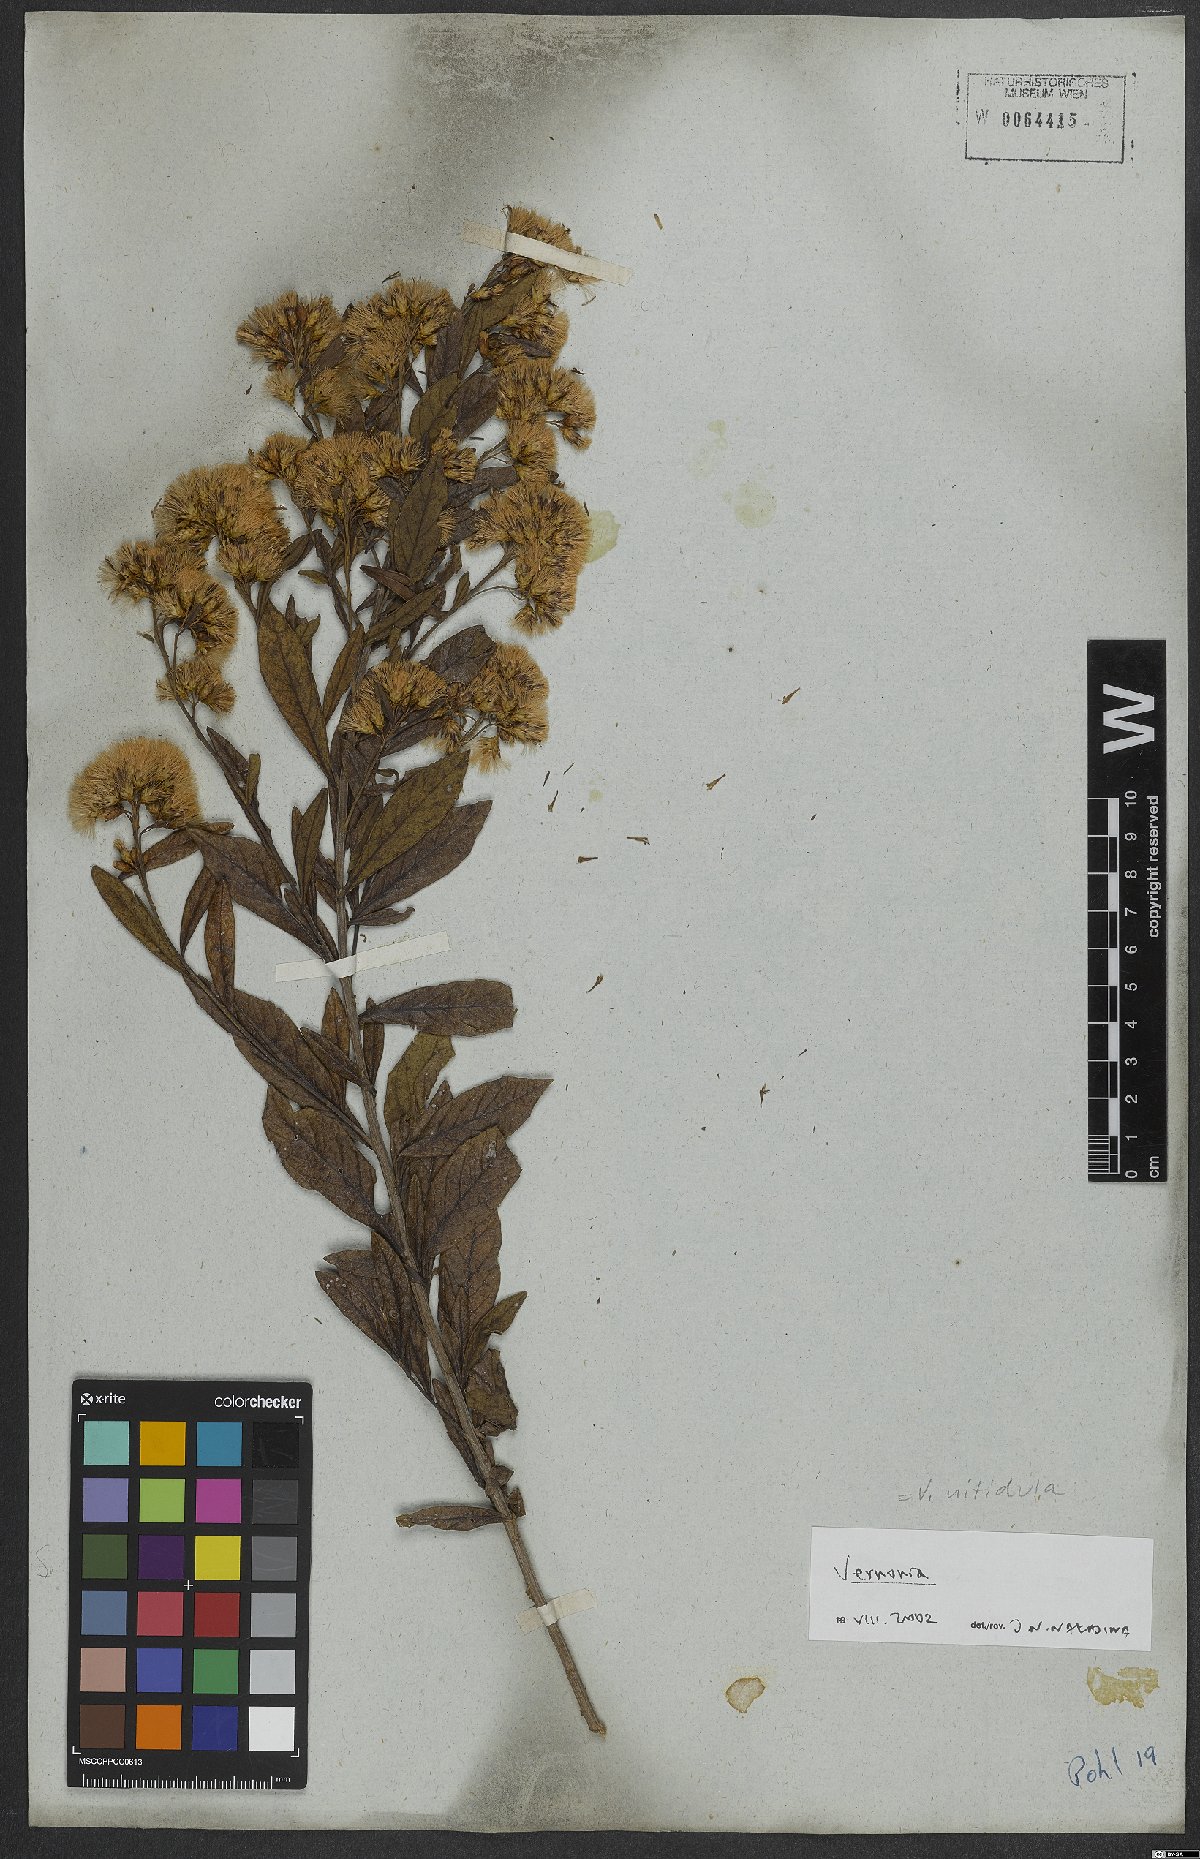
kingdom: Plantae
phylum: Tracheophyta
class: Magnoliopsida
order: Asterales
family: Asteraceae
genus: Vernonanthura
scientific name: Vernonanthura montevidensis
